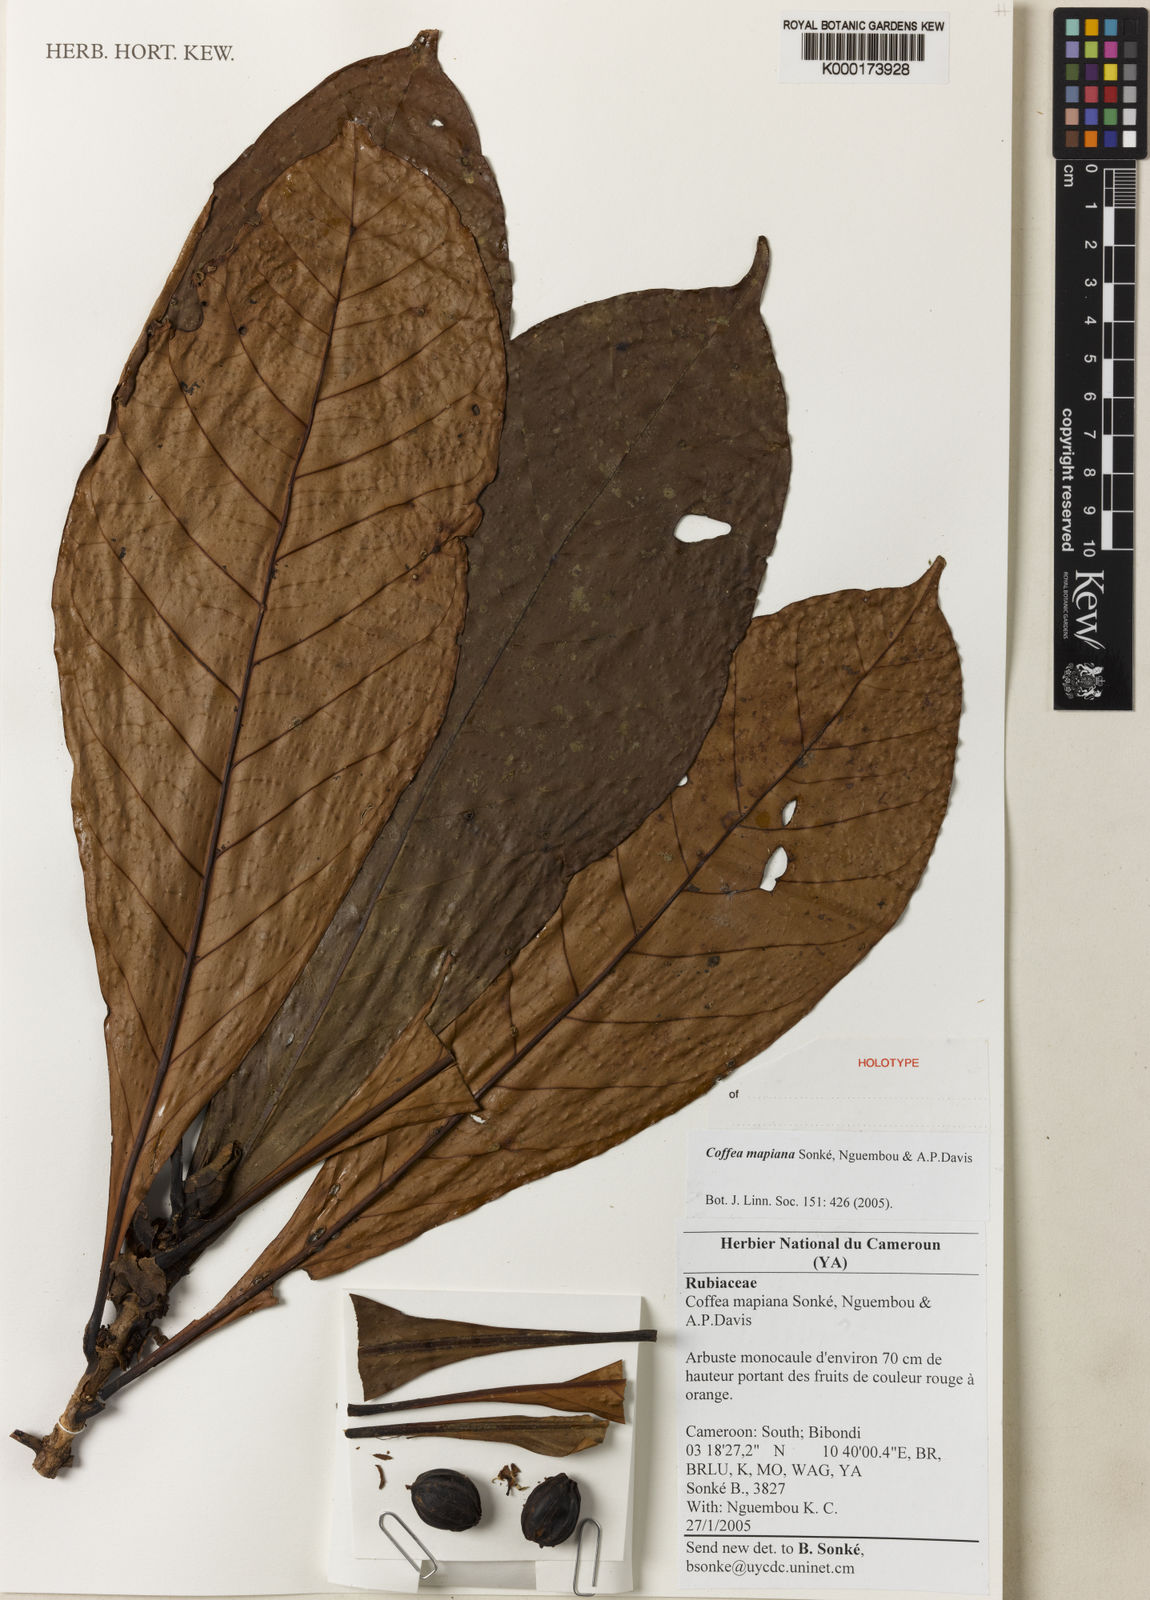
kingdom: Plantae
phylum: Tracheophyta
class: Magnoliopsida
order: Gentianales
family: Rubiaceae
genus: Coffea
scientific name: Coffea
